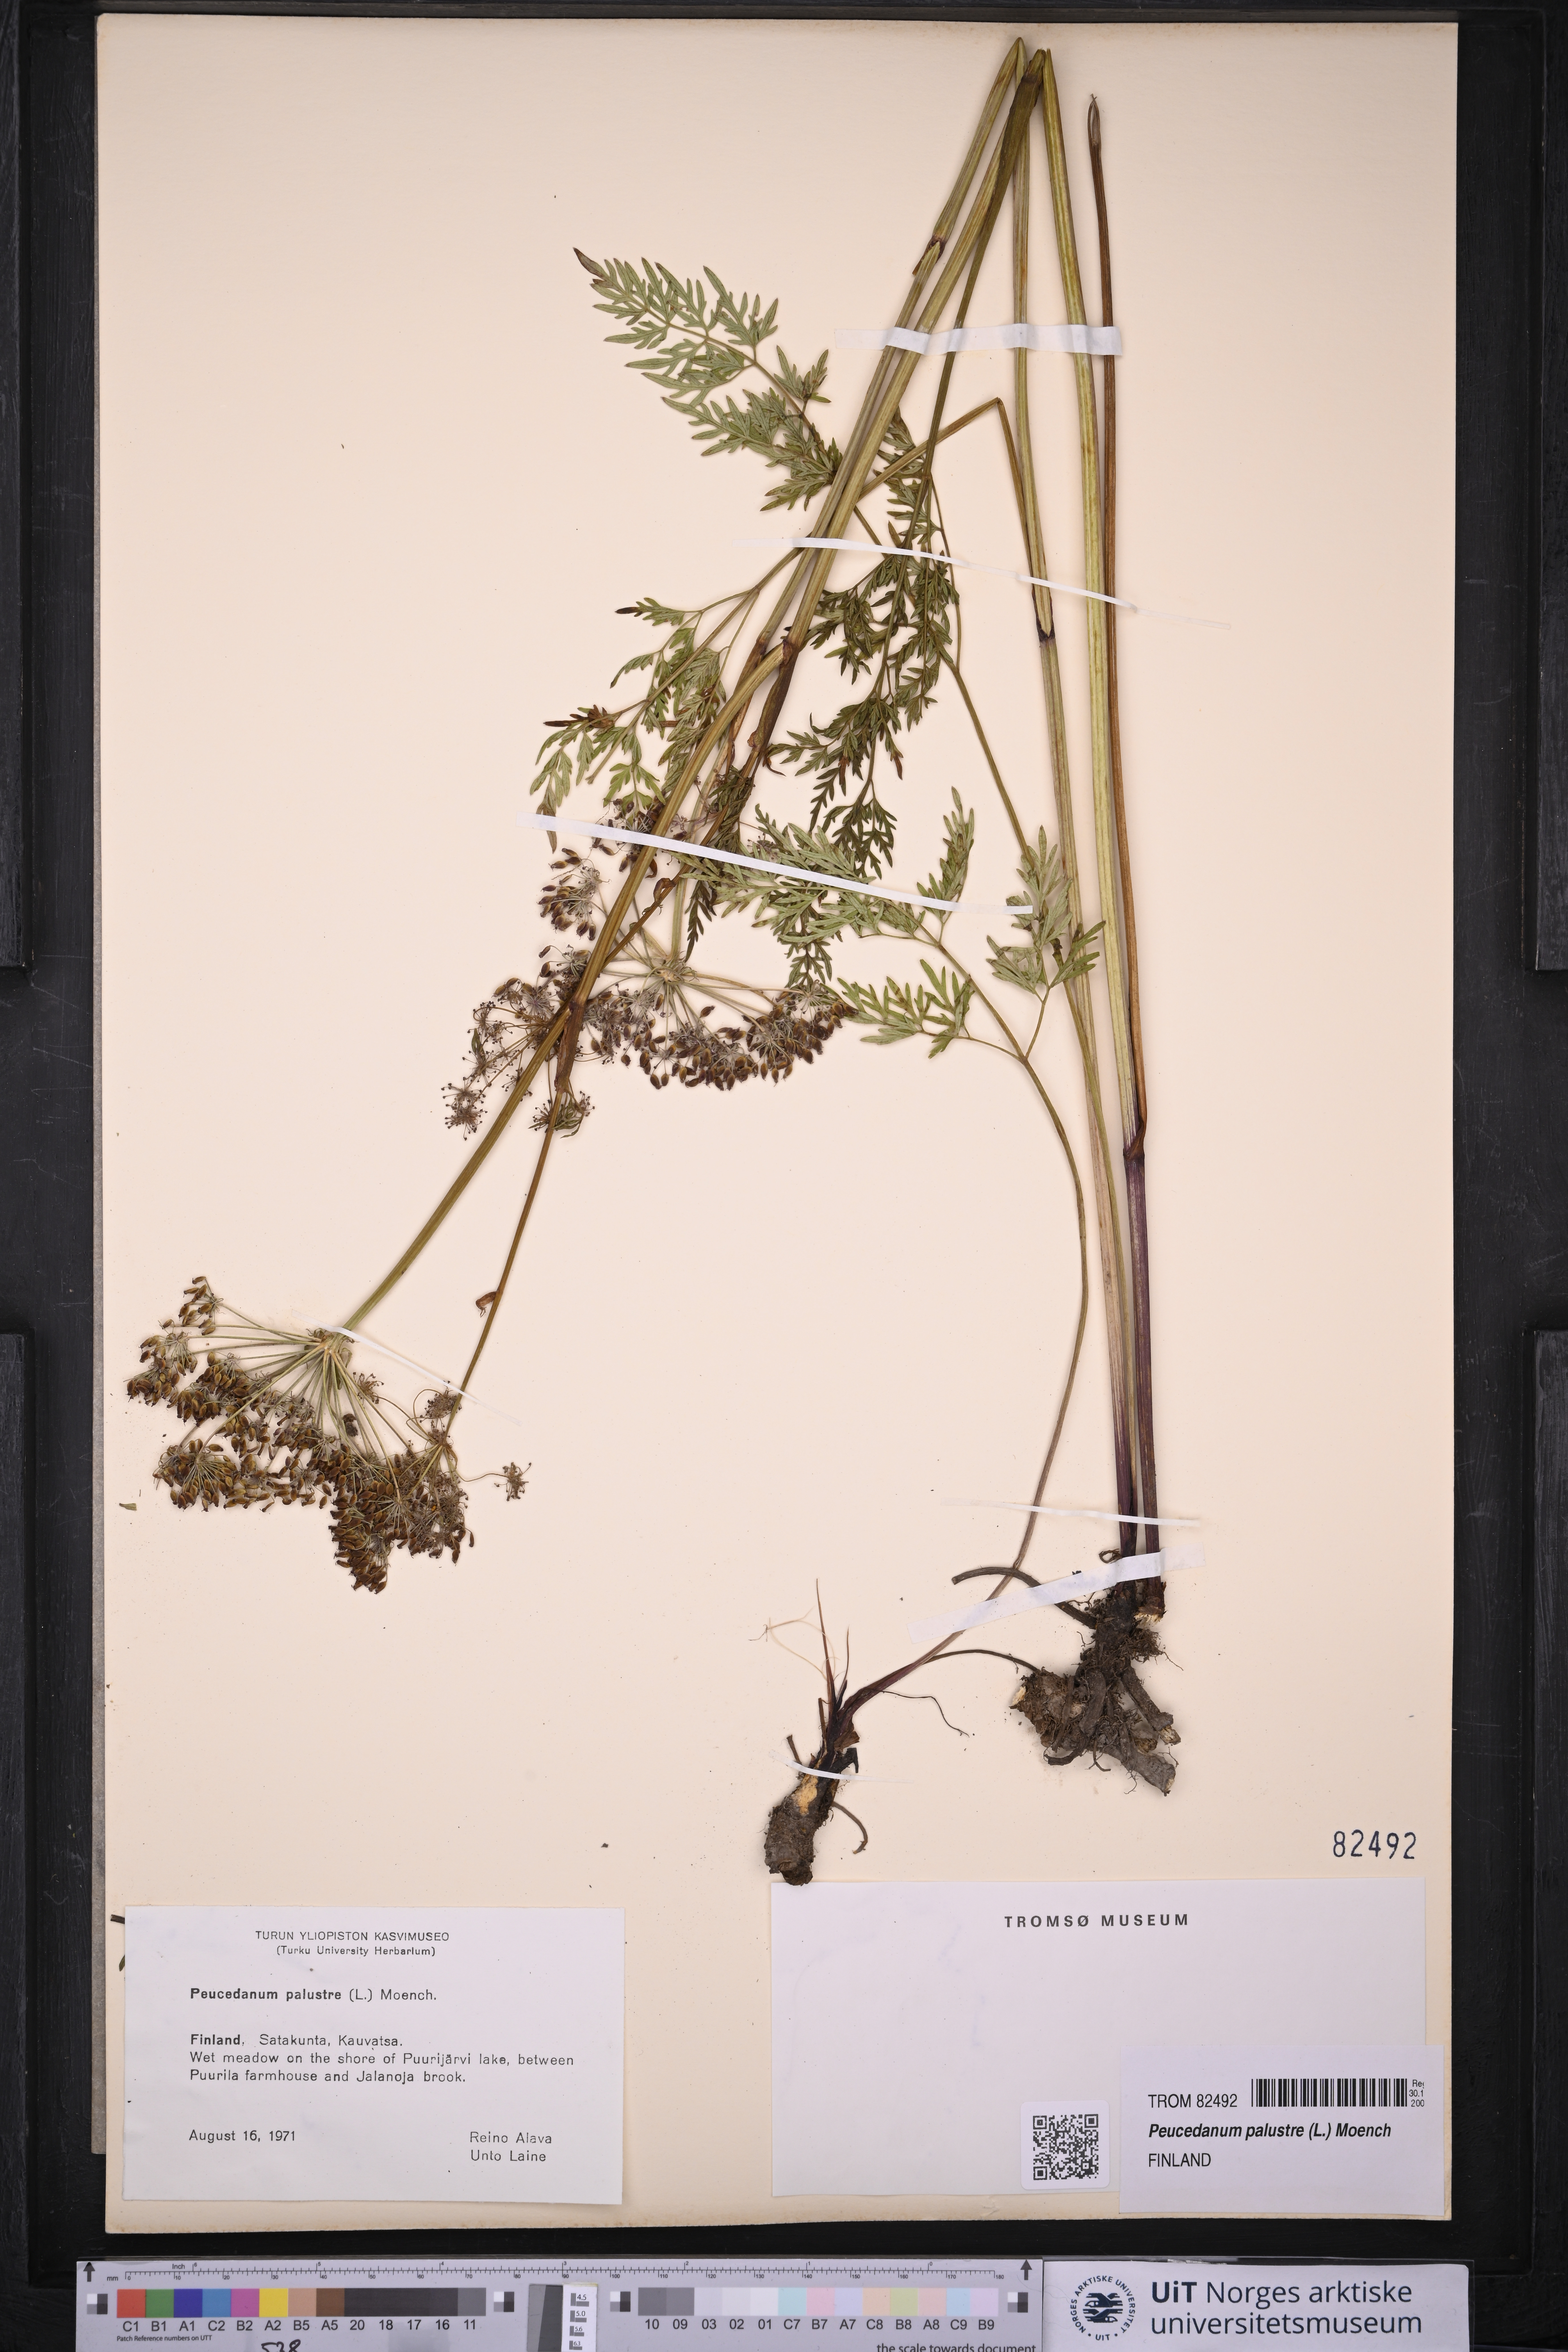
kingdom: Plantae
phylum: Tracheophyta
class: Magnoliopsida
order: Apiales
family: Apiaceae
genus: Thysselinum
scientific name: Thysselinum palustre
